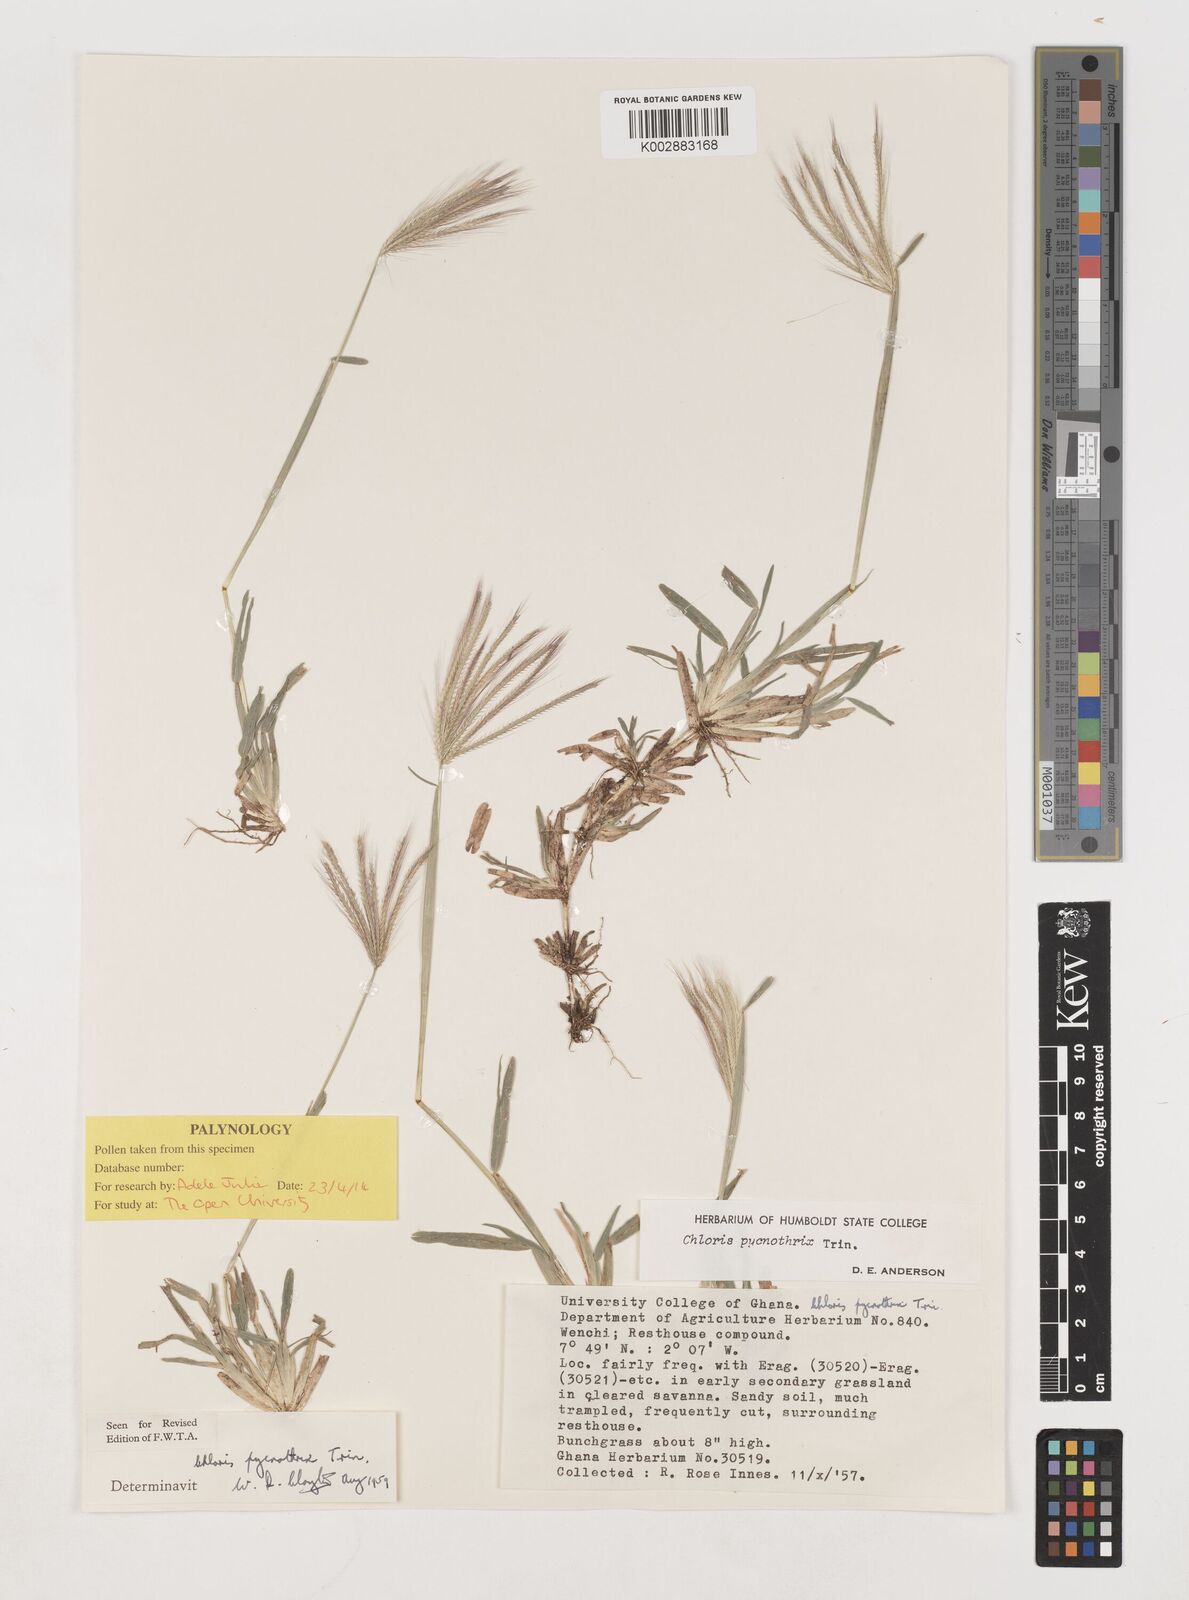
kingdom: Plantae
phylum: Tracheophyta
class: Liliopsida
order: Poales
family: Poaceae
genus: Chloris
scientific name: Chloris pycnothrix
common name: Spiderweb chloris
